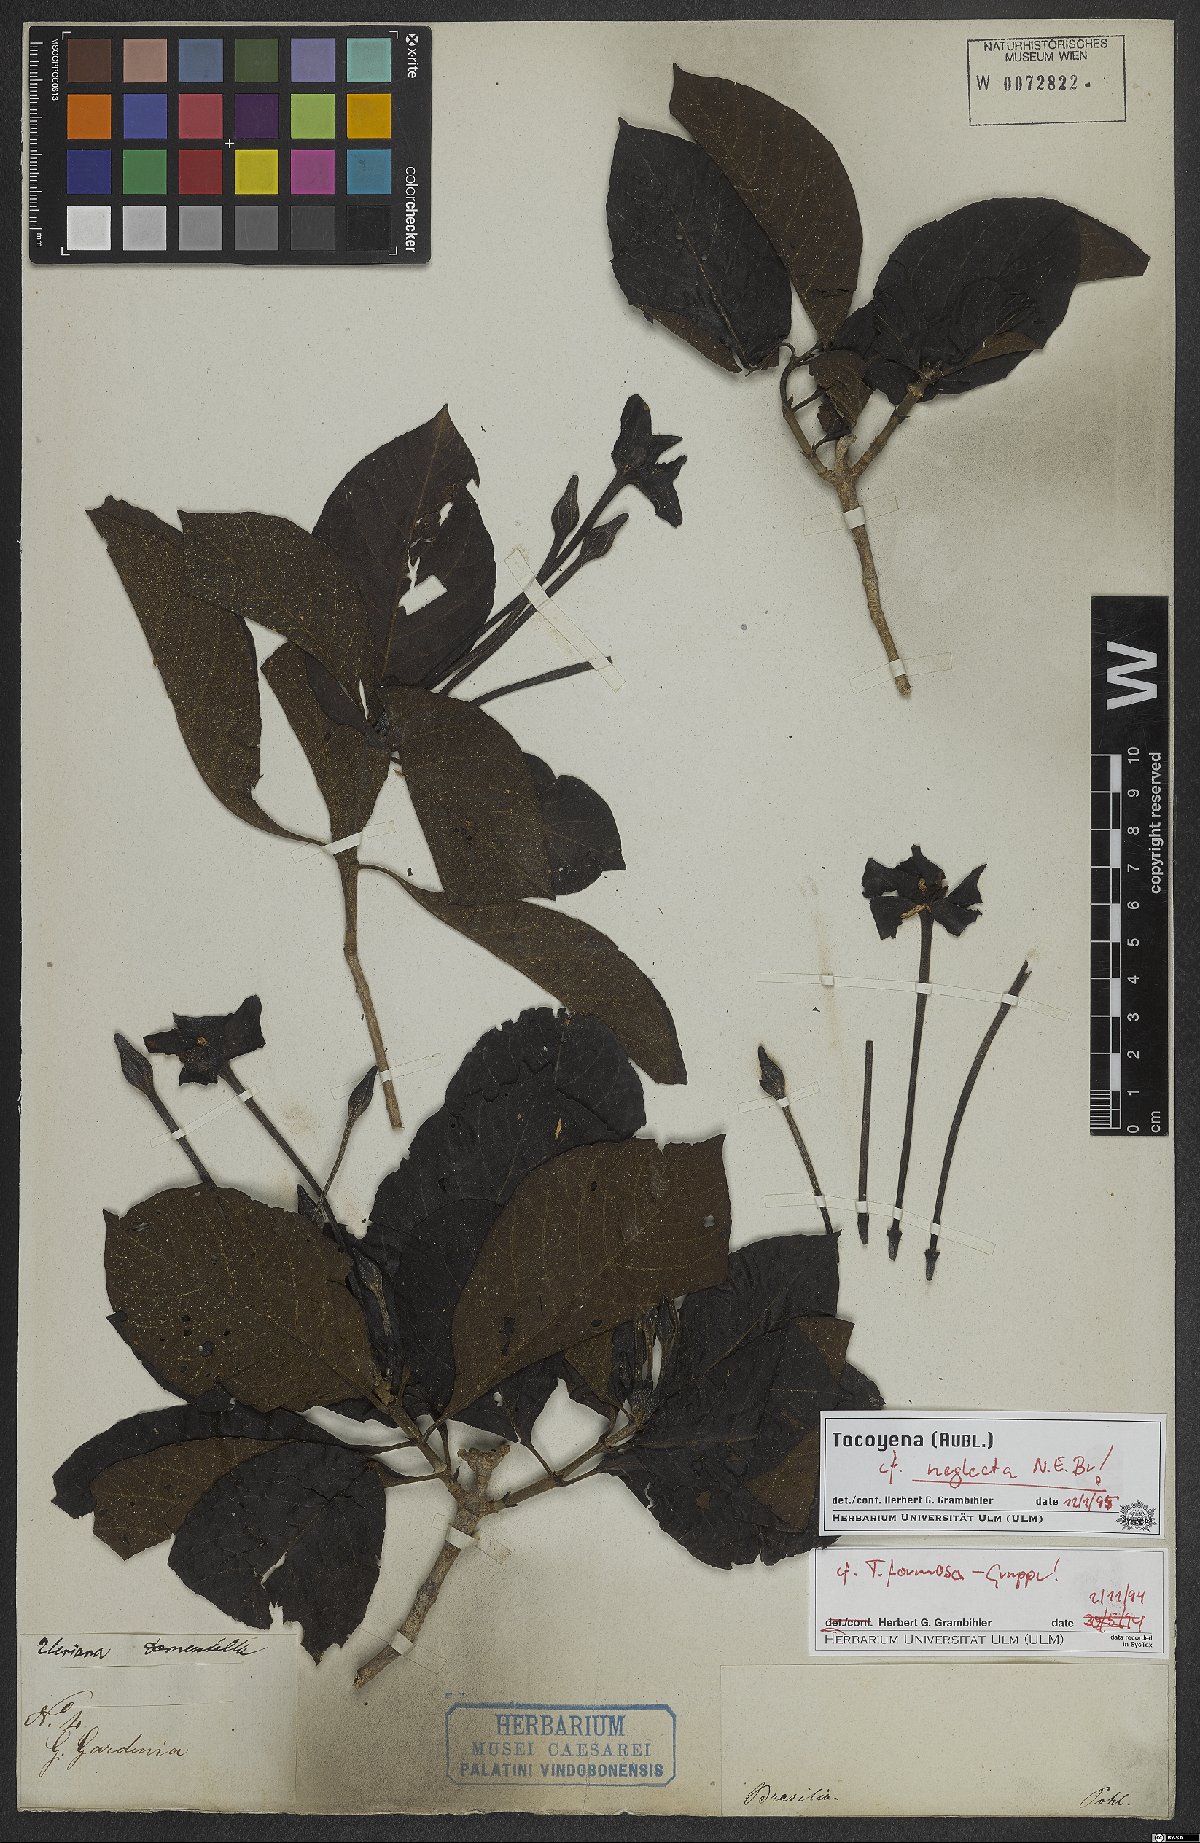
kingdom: Plantae
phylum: Tracheophyta
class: Magnoliopsida
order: Gentianales
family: Rubiaceae
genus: Tocoyena
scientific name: Tocoyena neglecta
